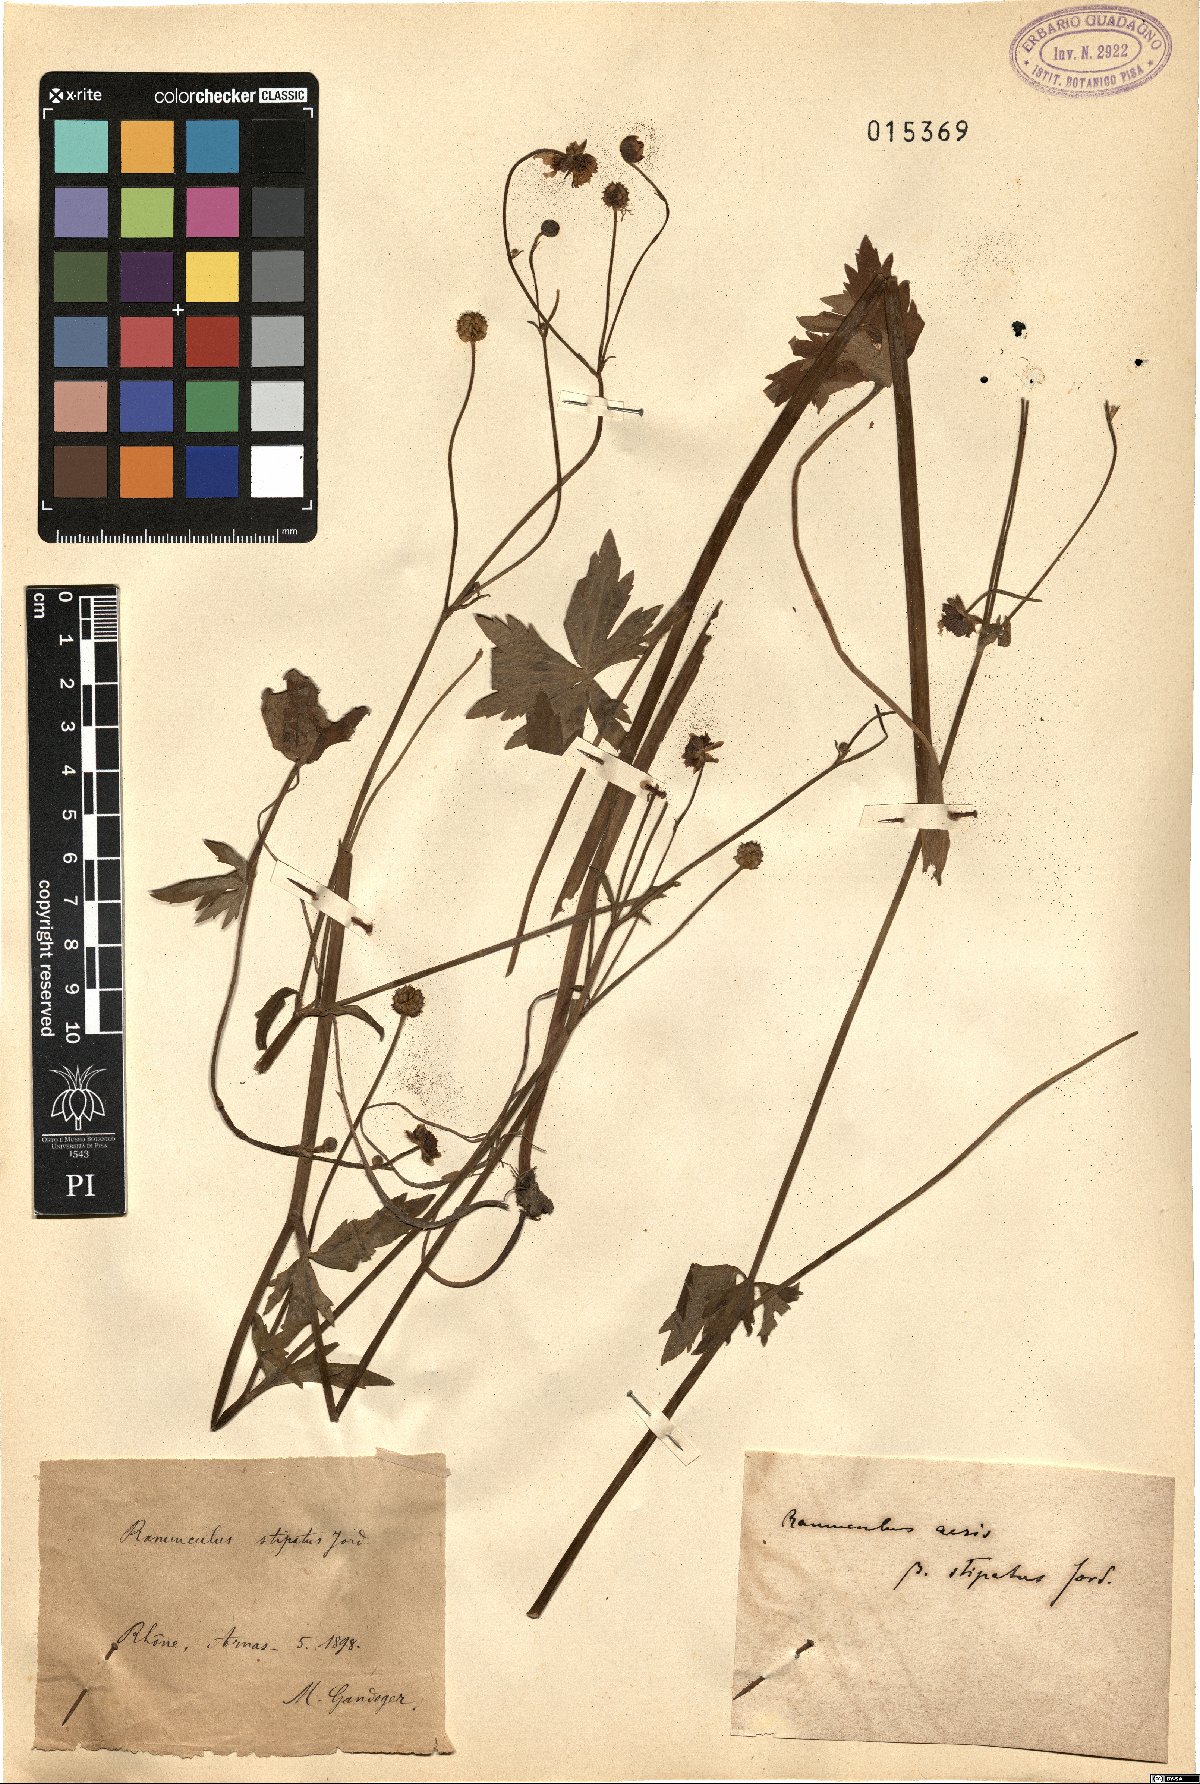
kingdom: Plantae
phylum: Tracheophyta
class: Magnoliopsida
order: Ranunculales
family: Ranunculaceae
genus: Ranunculus
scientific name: Ranunculus acris
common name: Meadow buttercup
